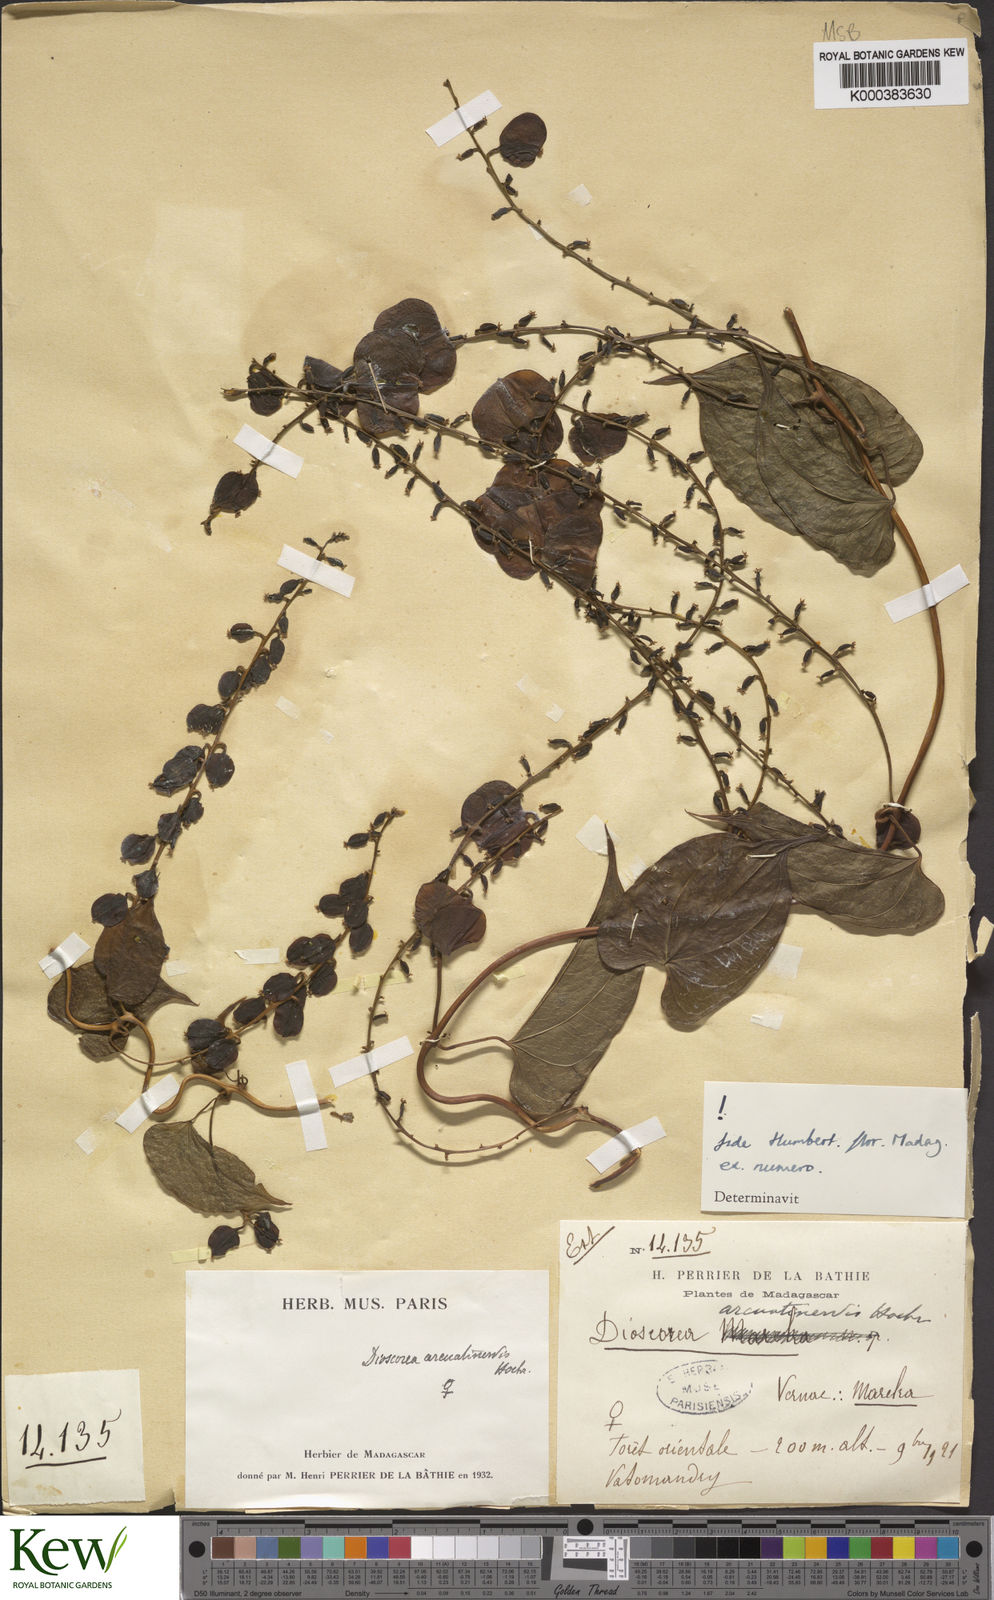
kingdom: Plantae
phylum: Tracheophyta
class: Liliopsida
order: Dioscoreales
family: Dioscoreaceae
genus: Dioscorea
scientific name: Dioscorea arcuatinervis
